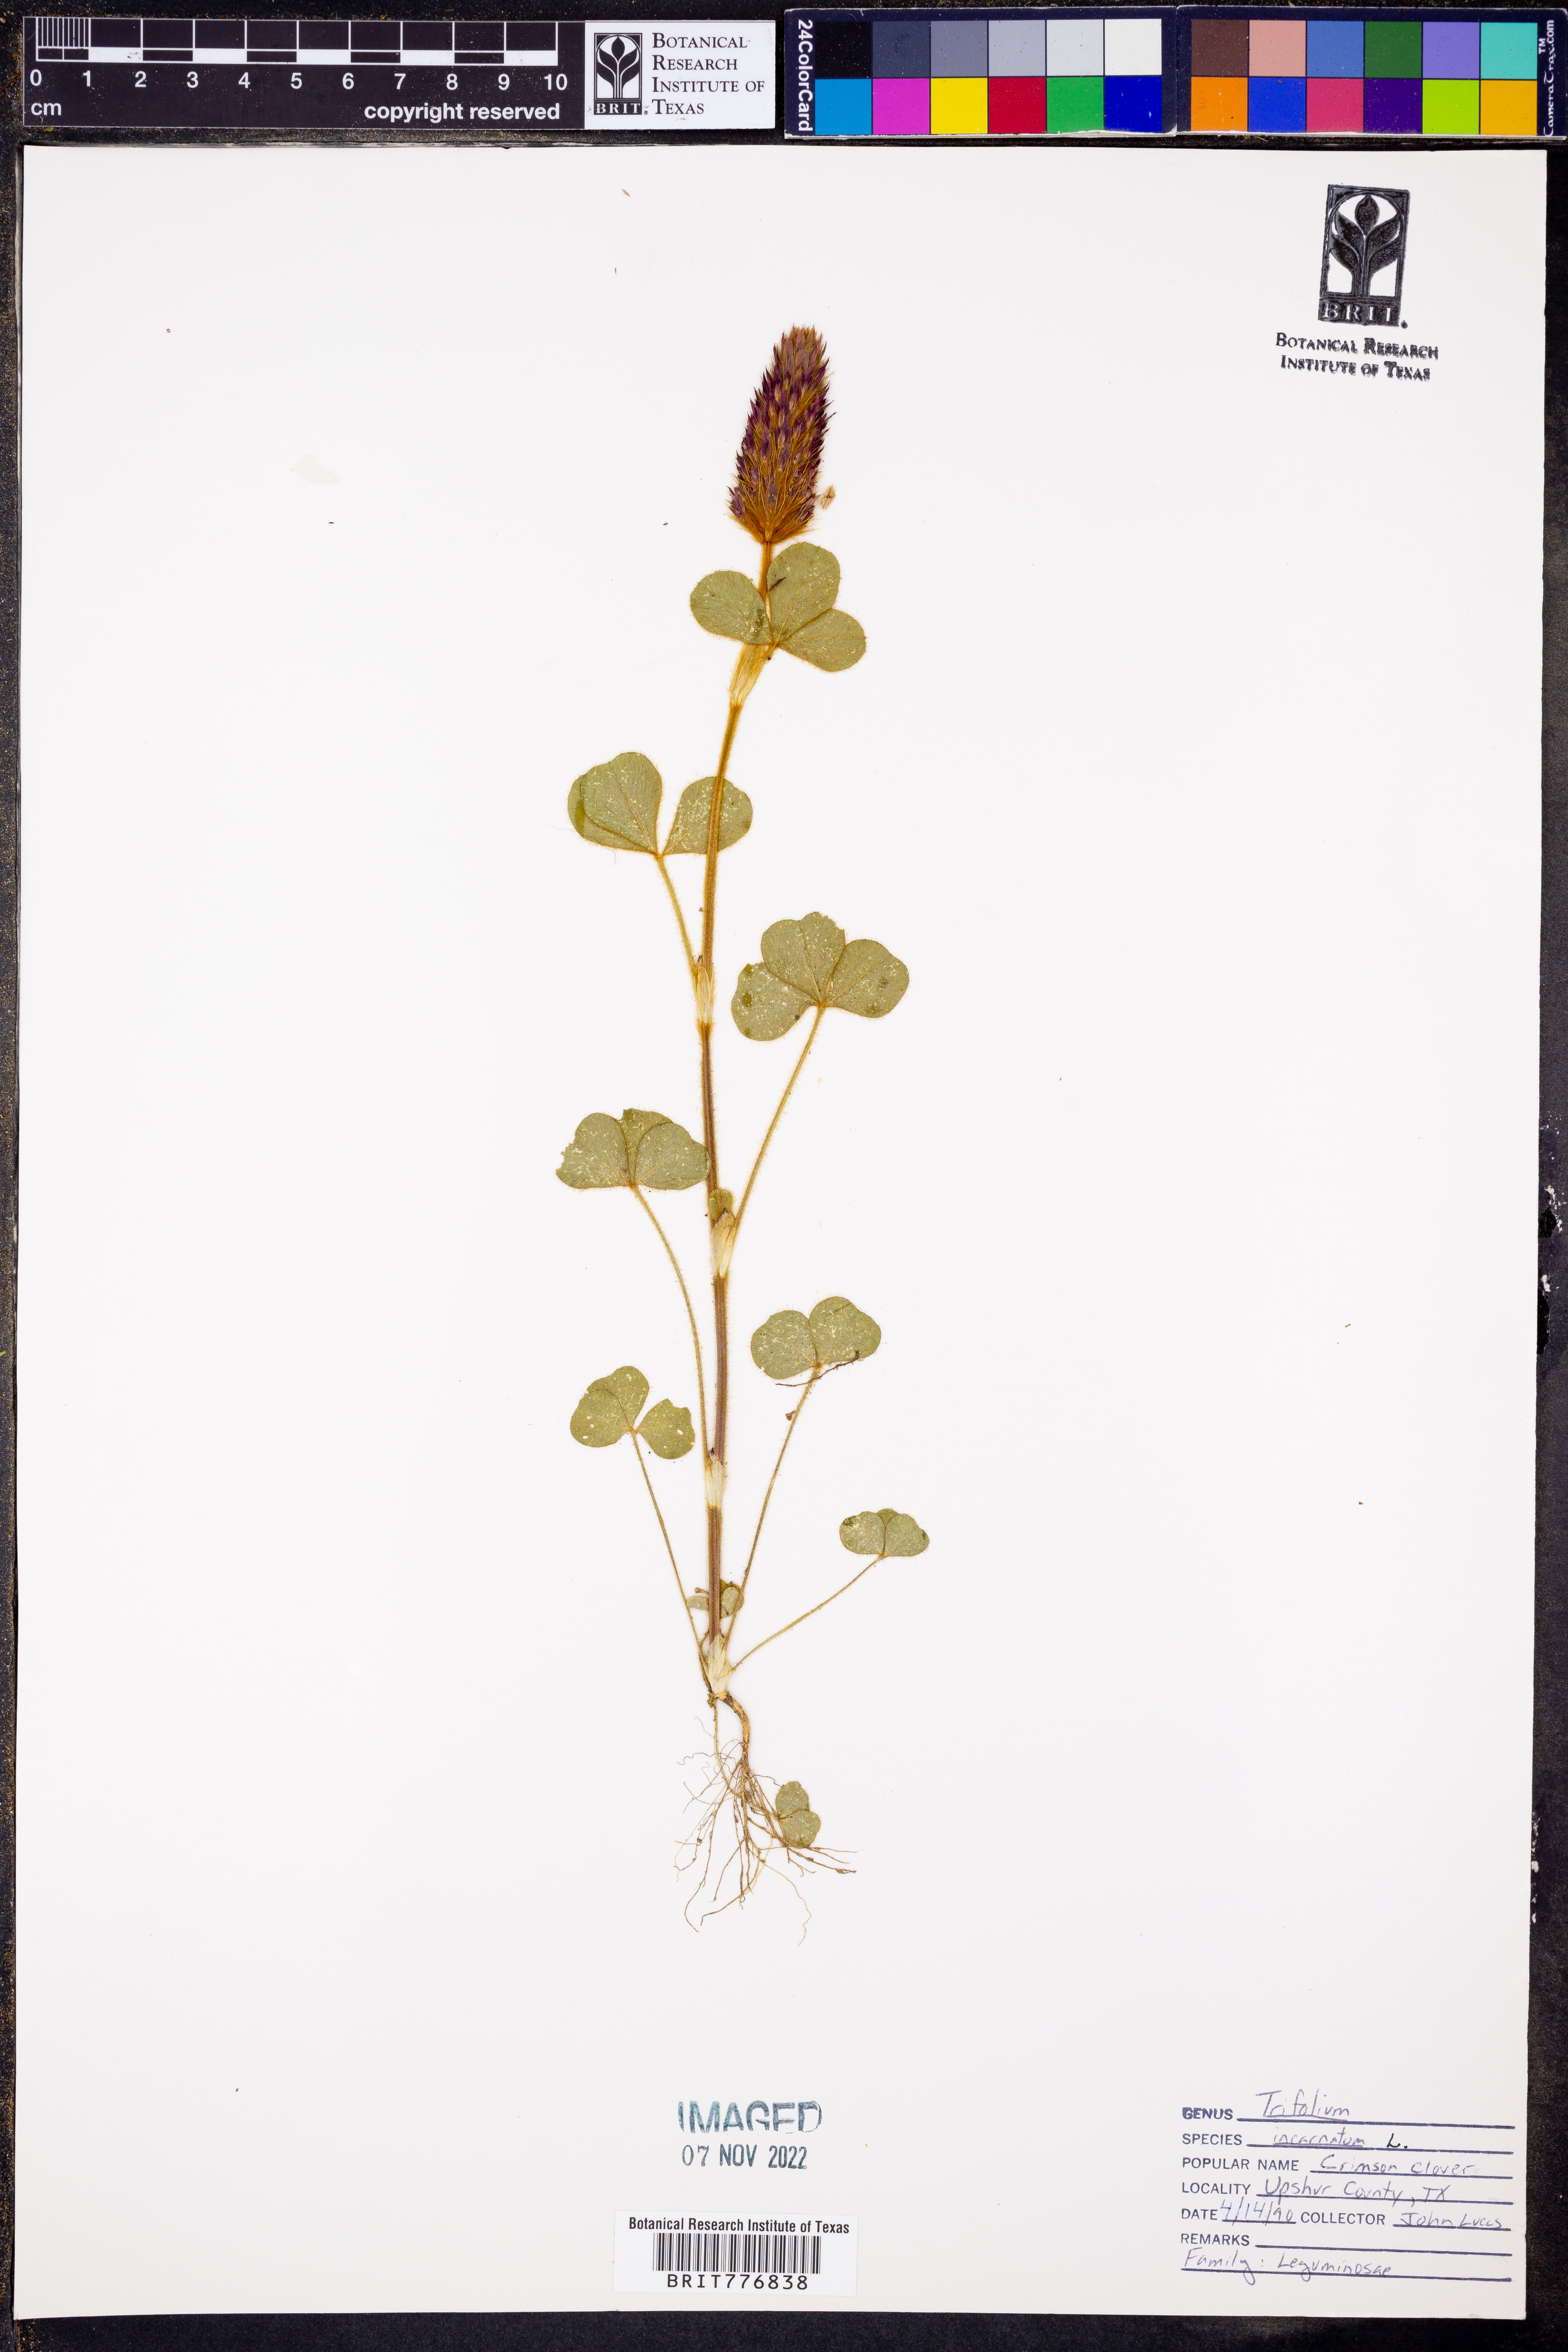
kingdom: Plantae
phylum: Tracheophyta
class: Magnoliopsida
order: Fabales
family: Fabaceae
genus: Trifolium
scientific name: Trifolium incarnatum
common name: Crimson clover
